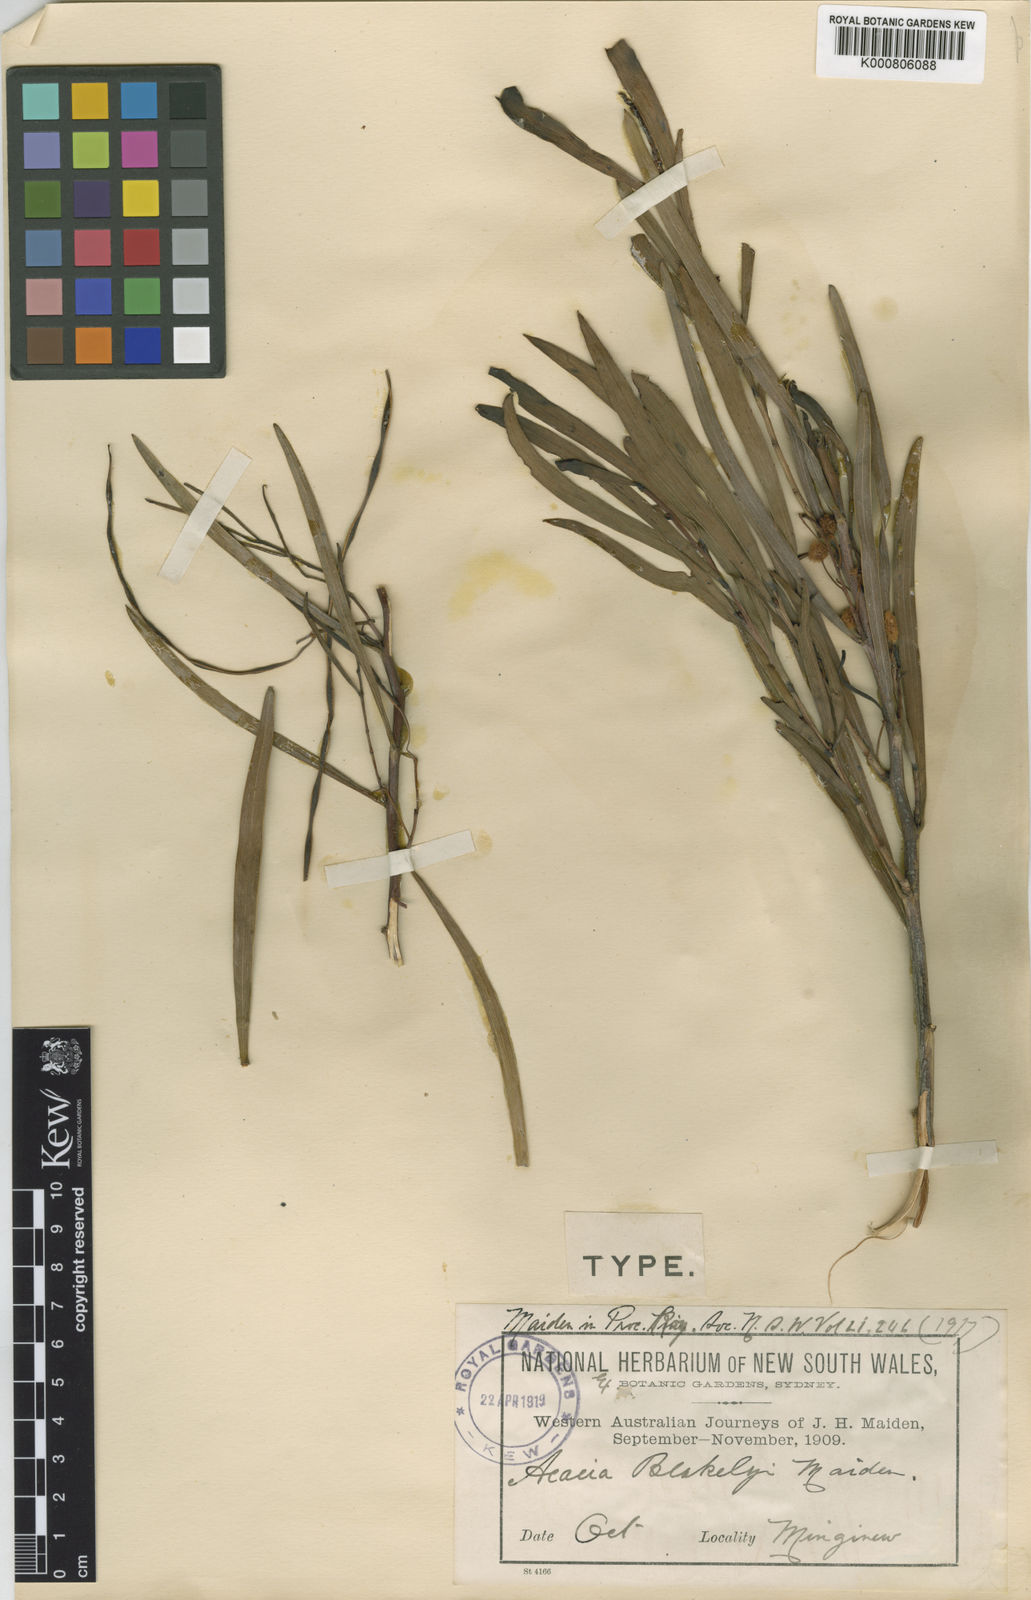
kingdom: Plantae
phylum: Tracheophyta
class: Magnoliopsida
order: Fabales
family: Fabaceae
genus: Acacia
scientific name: Acacia blakelyi
